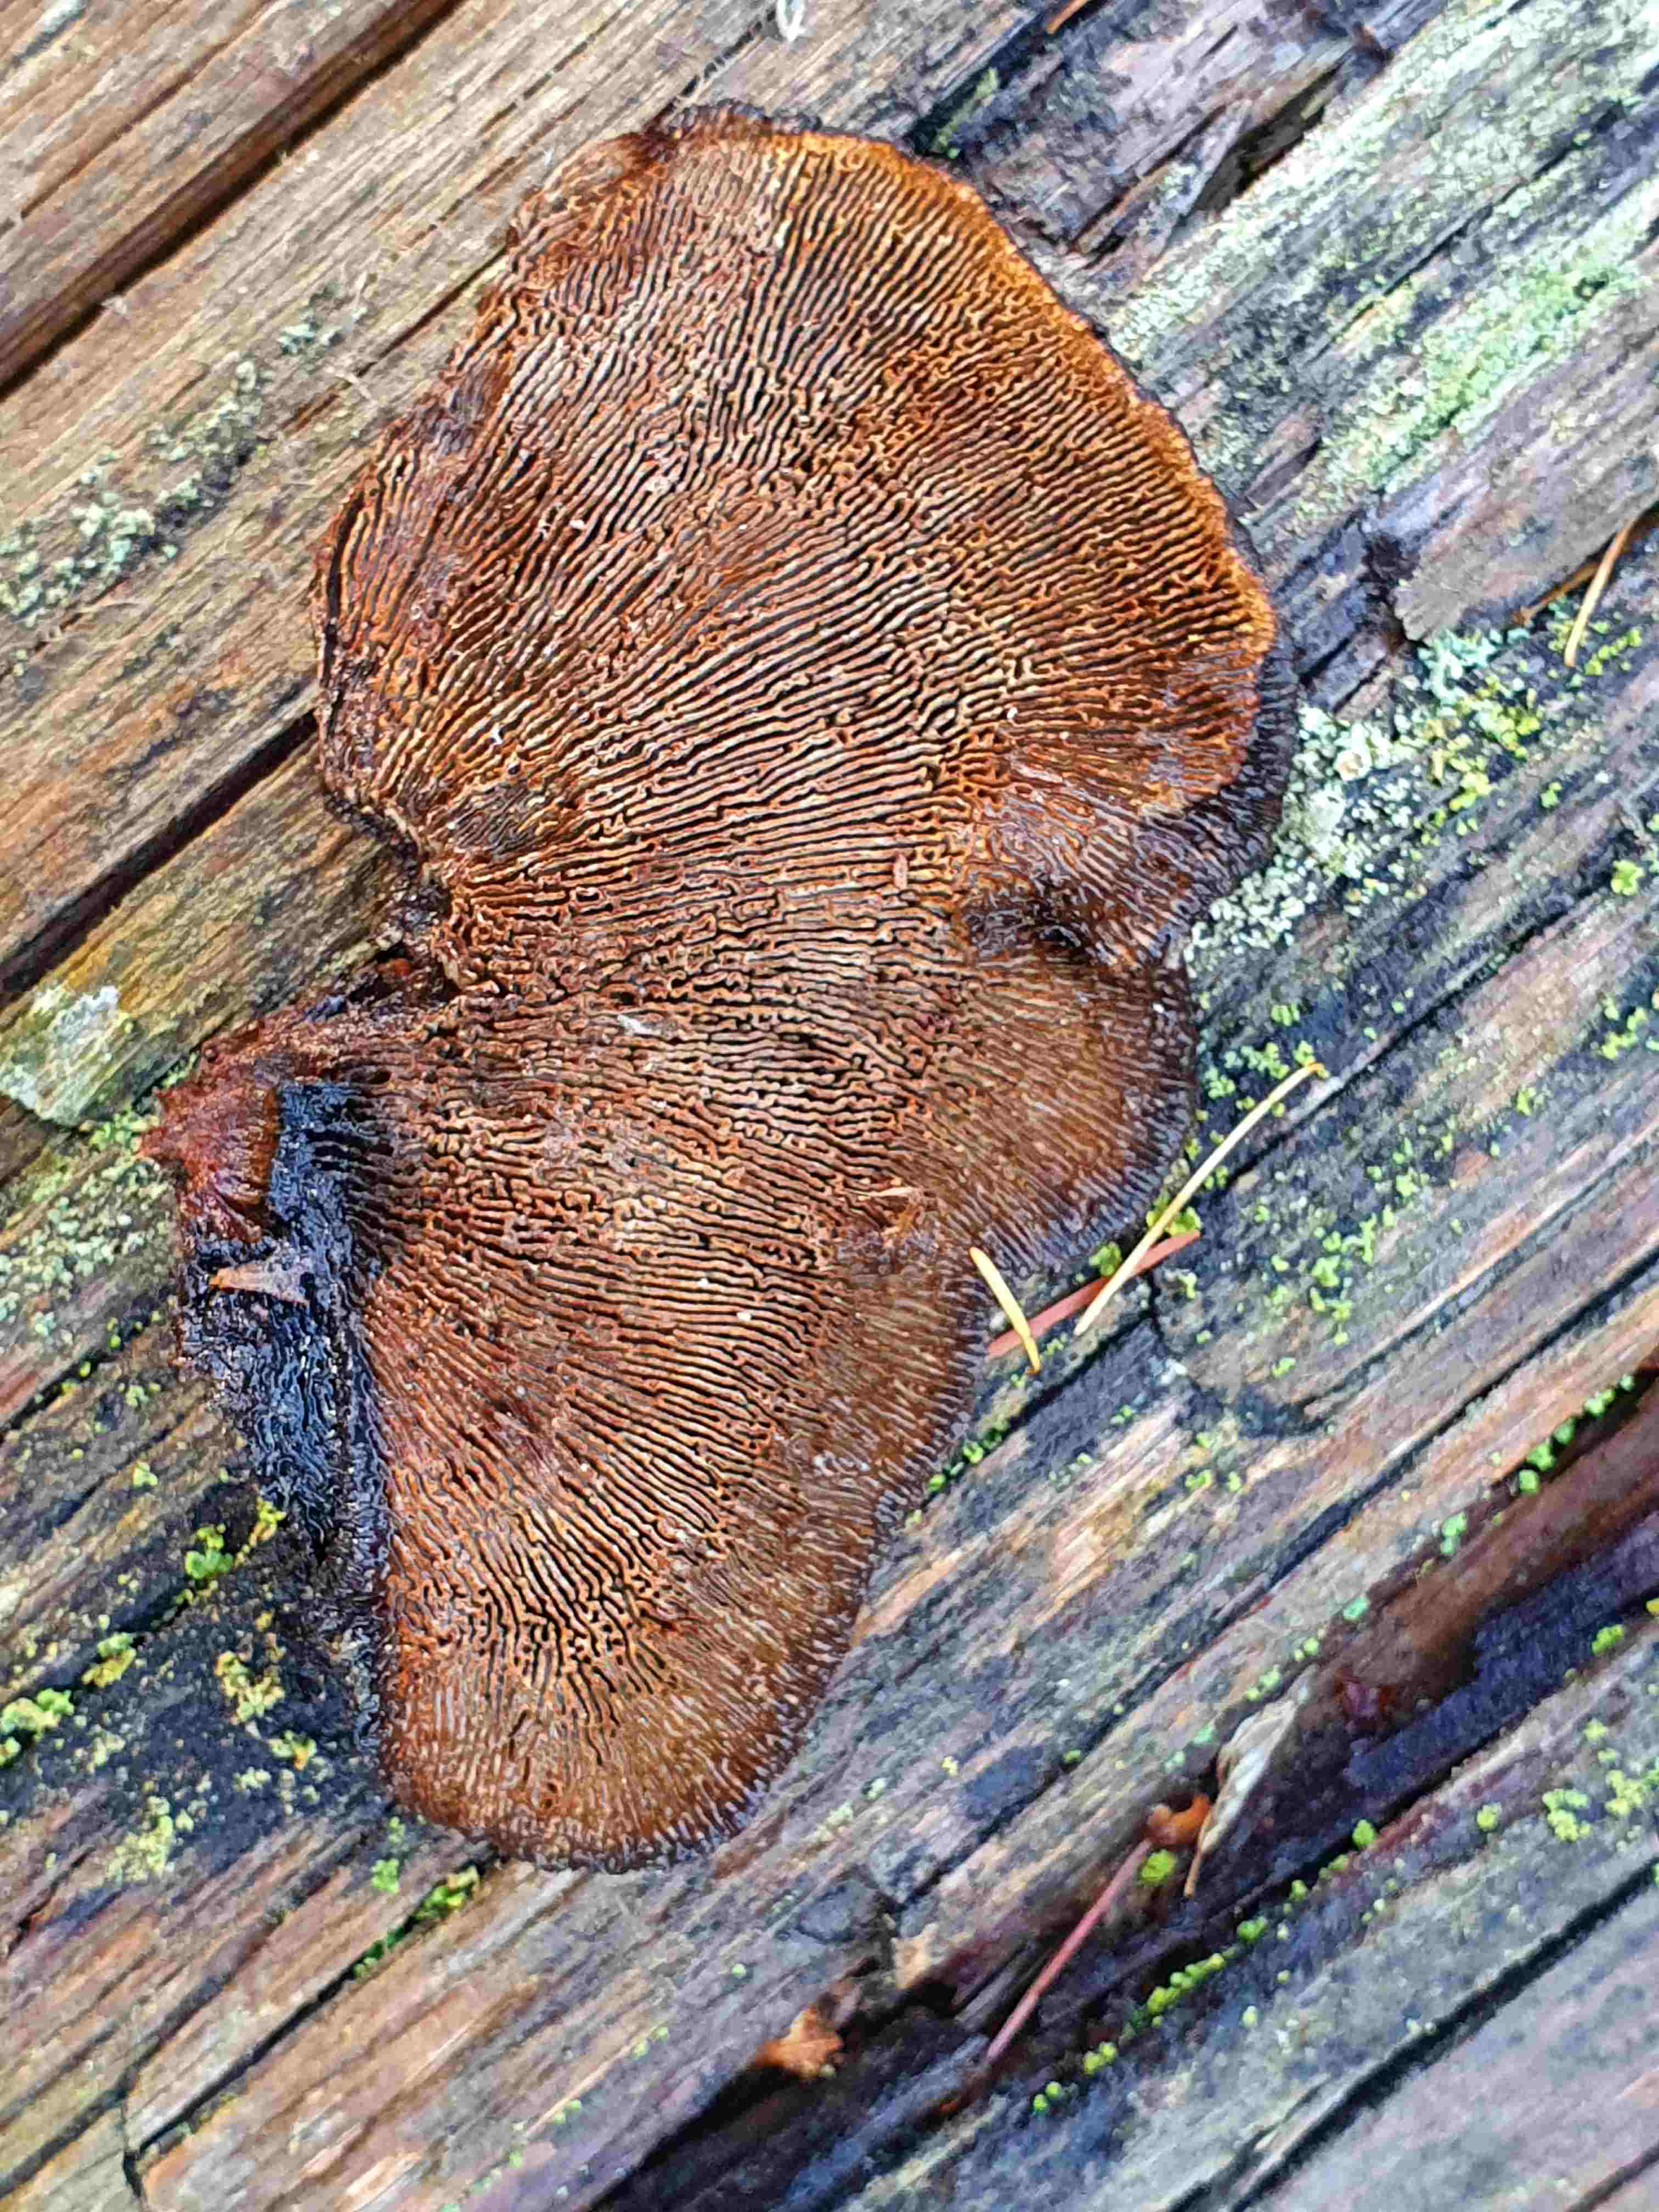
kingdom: Fungi
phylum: Basidiomycota
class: Agaricomycetes
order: Gloeophyllales
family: Gloeophyllaceae
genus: Gloeophyllum
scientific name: Gloeophyllum sepiarium
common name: fyrre-korkhat
